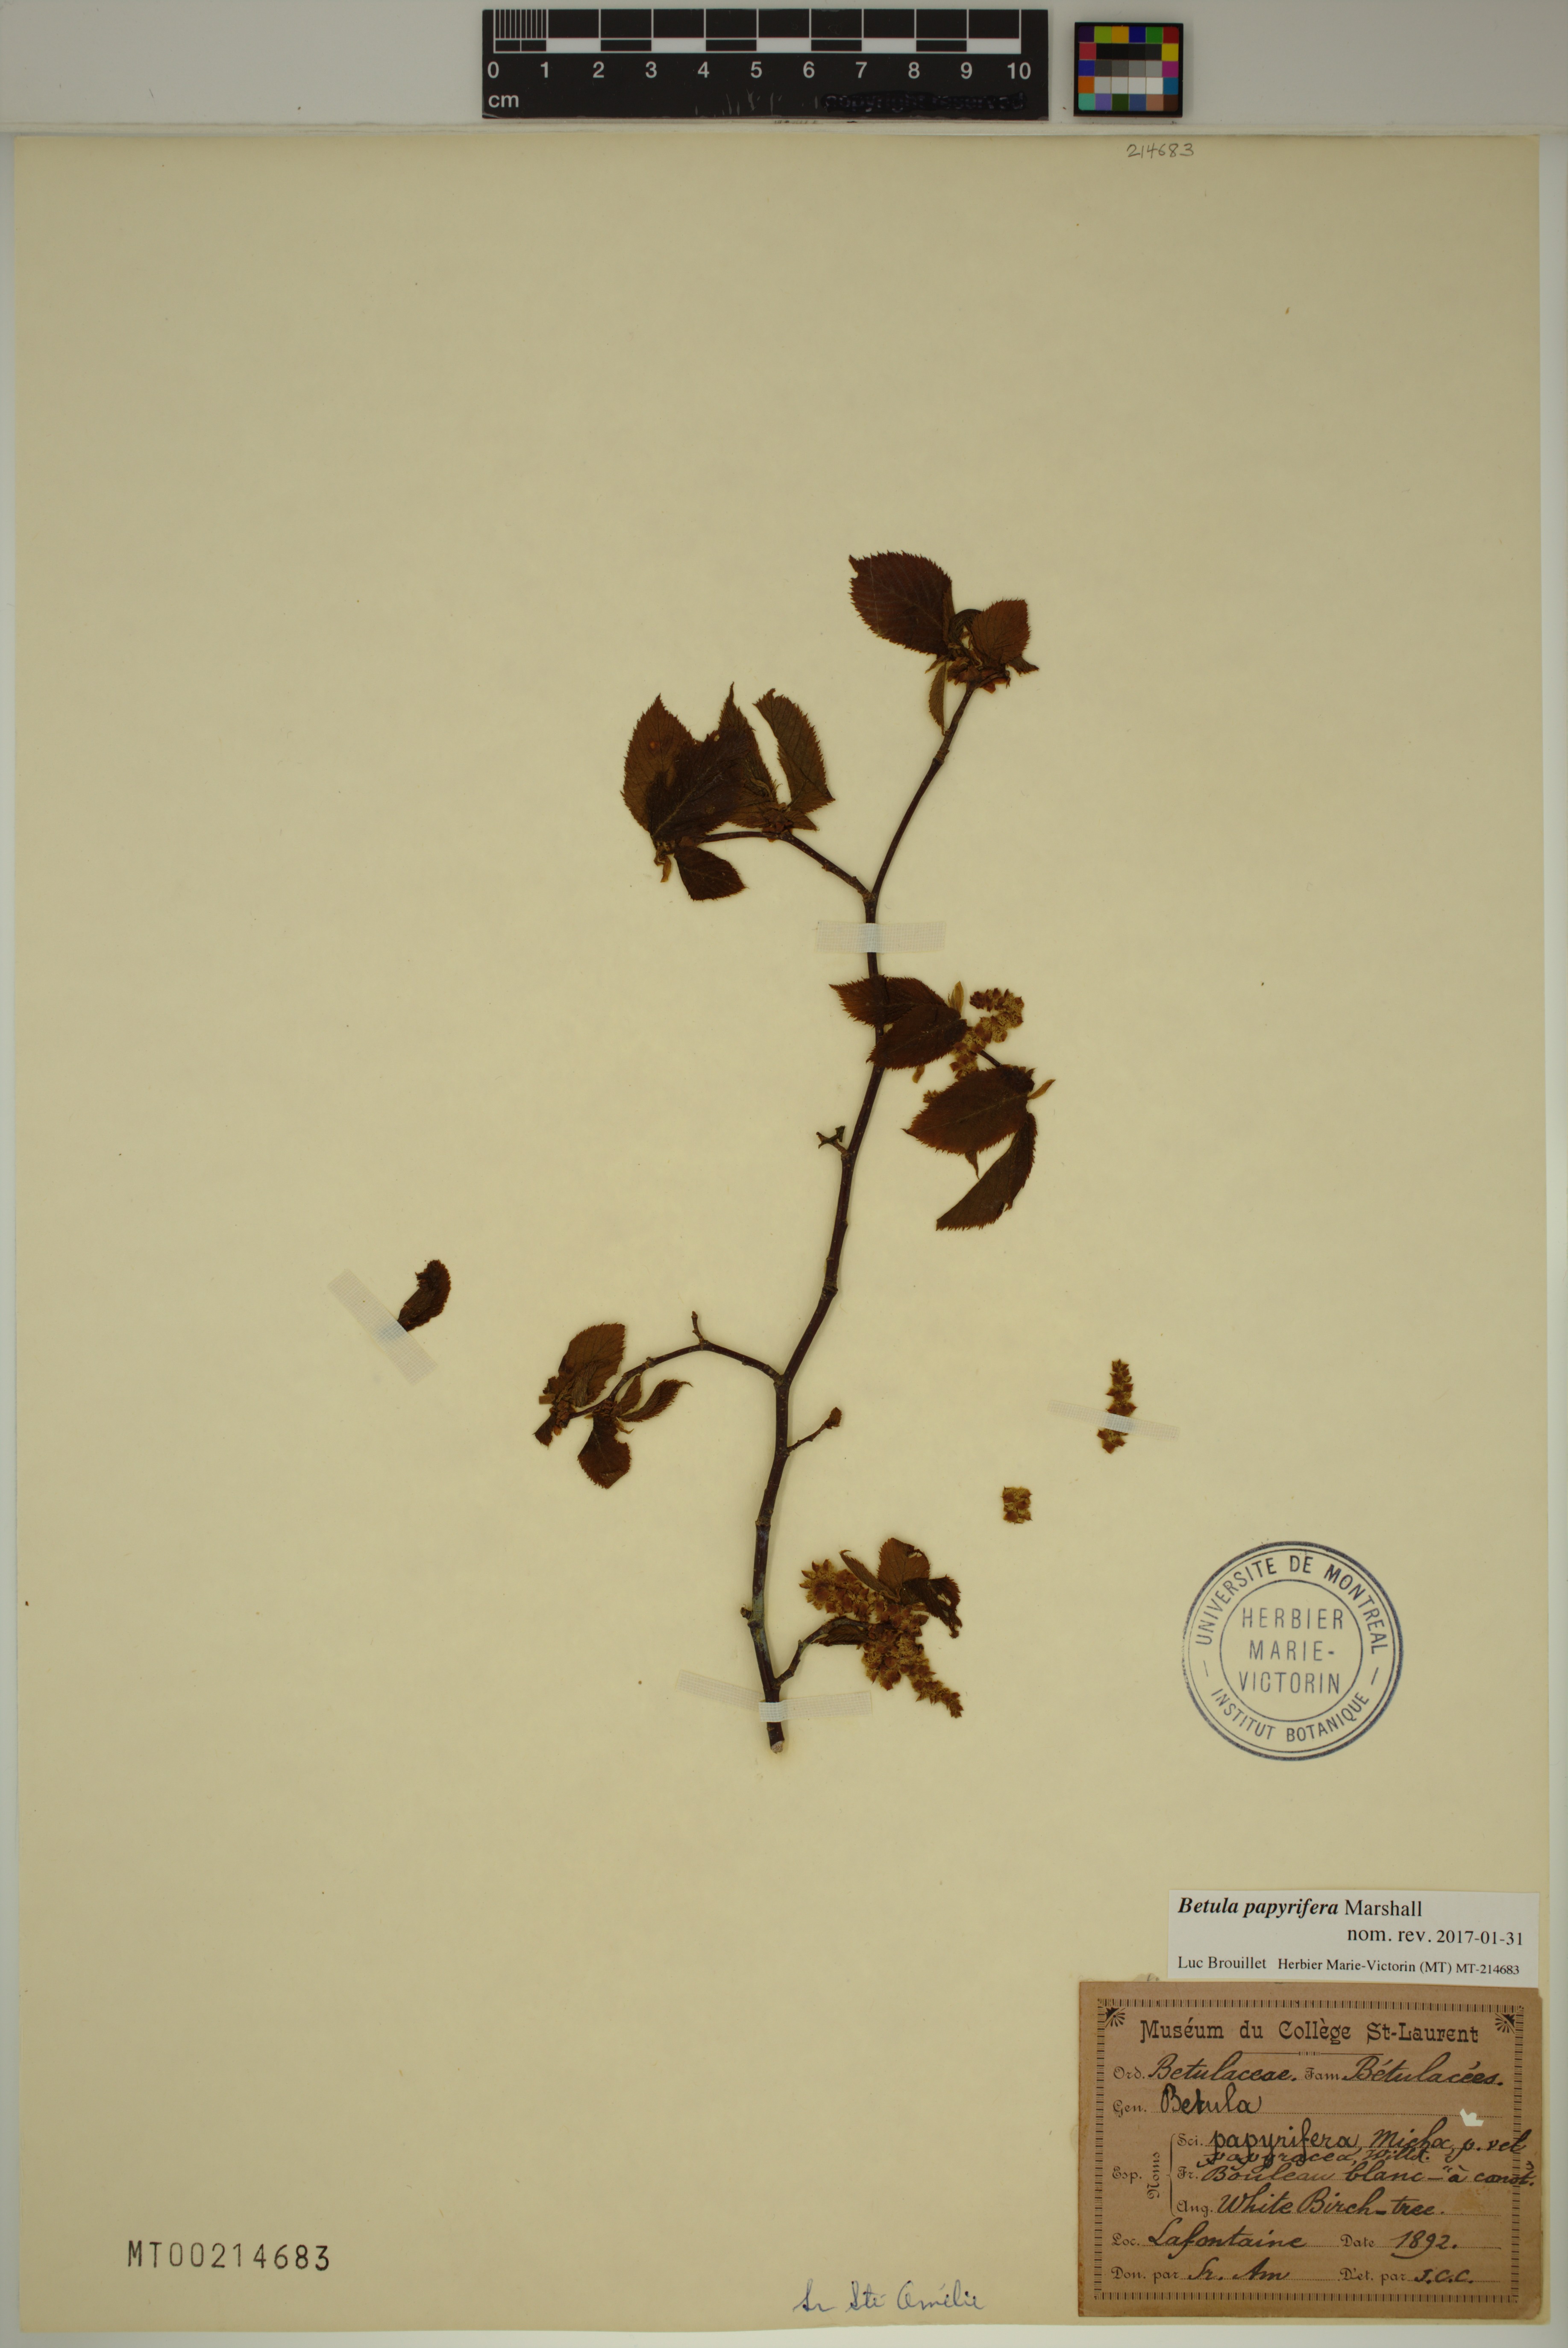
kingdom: Plantae
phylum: Tracheophyta
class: Magnoliopsida
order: Fagales
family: Betulaceae
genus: Betula
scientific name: Betula papyrifera
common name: Paper birch
